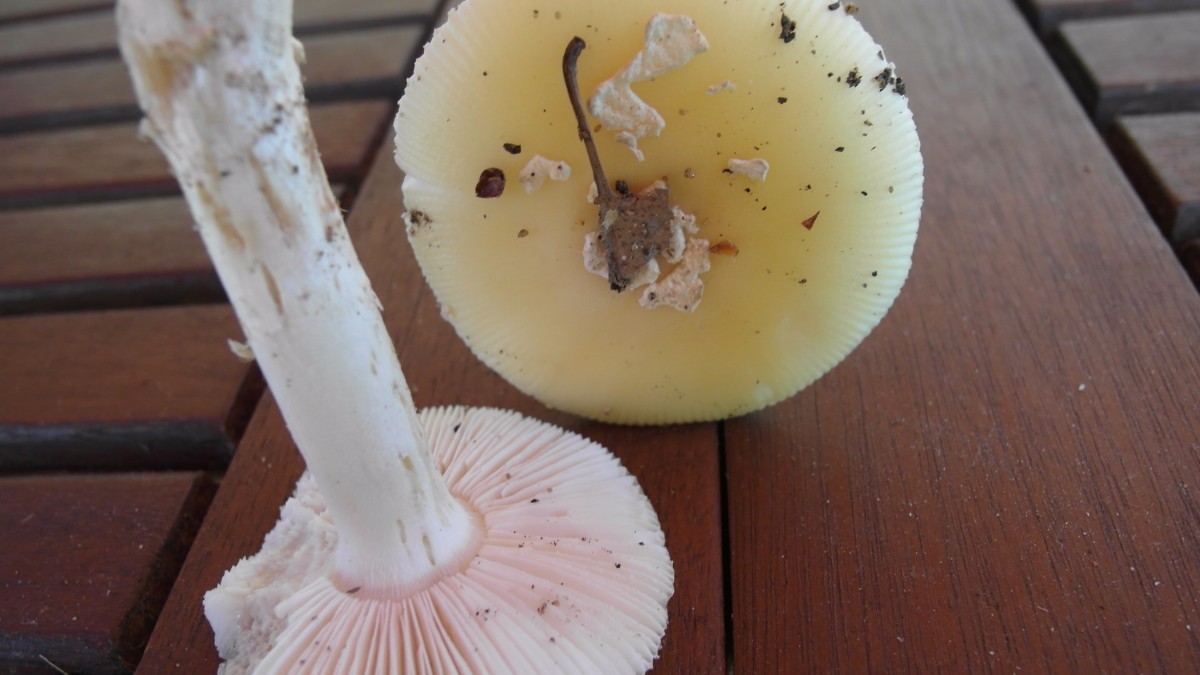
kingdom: Fungi
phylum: Basidiomycota
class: Agaricomycetes
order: Agaricales
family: Amanitaceae
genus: Amanita
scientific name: Amanita gemmata
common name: okkergul fluesvamp
